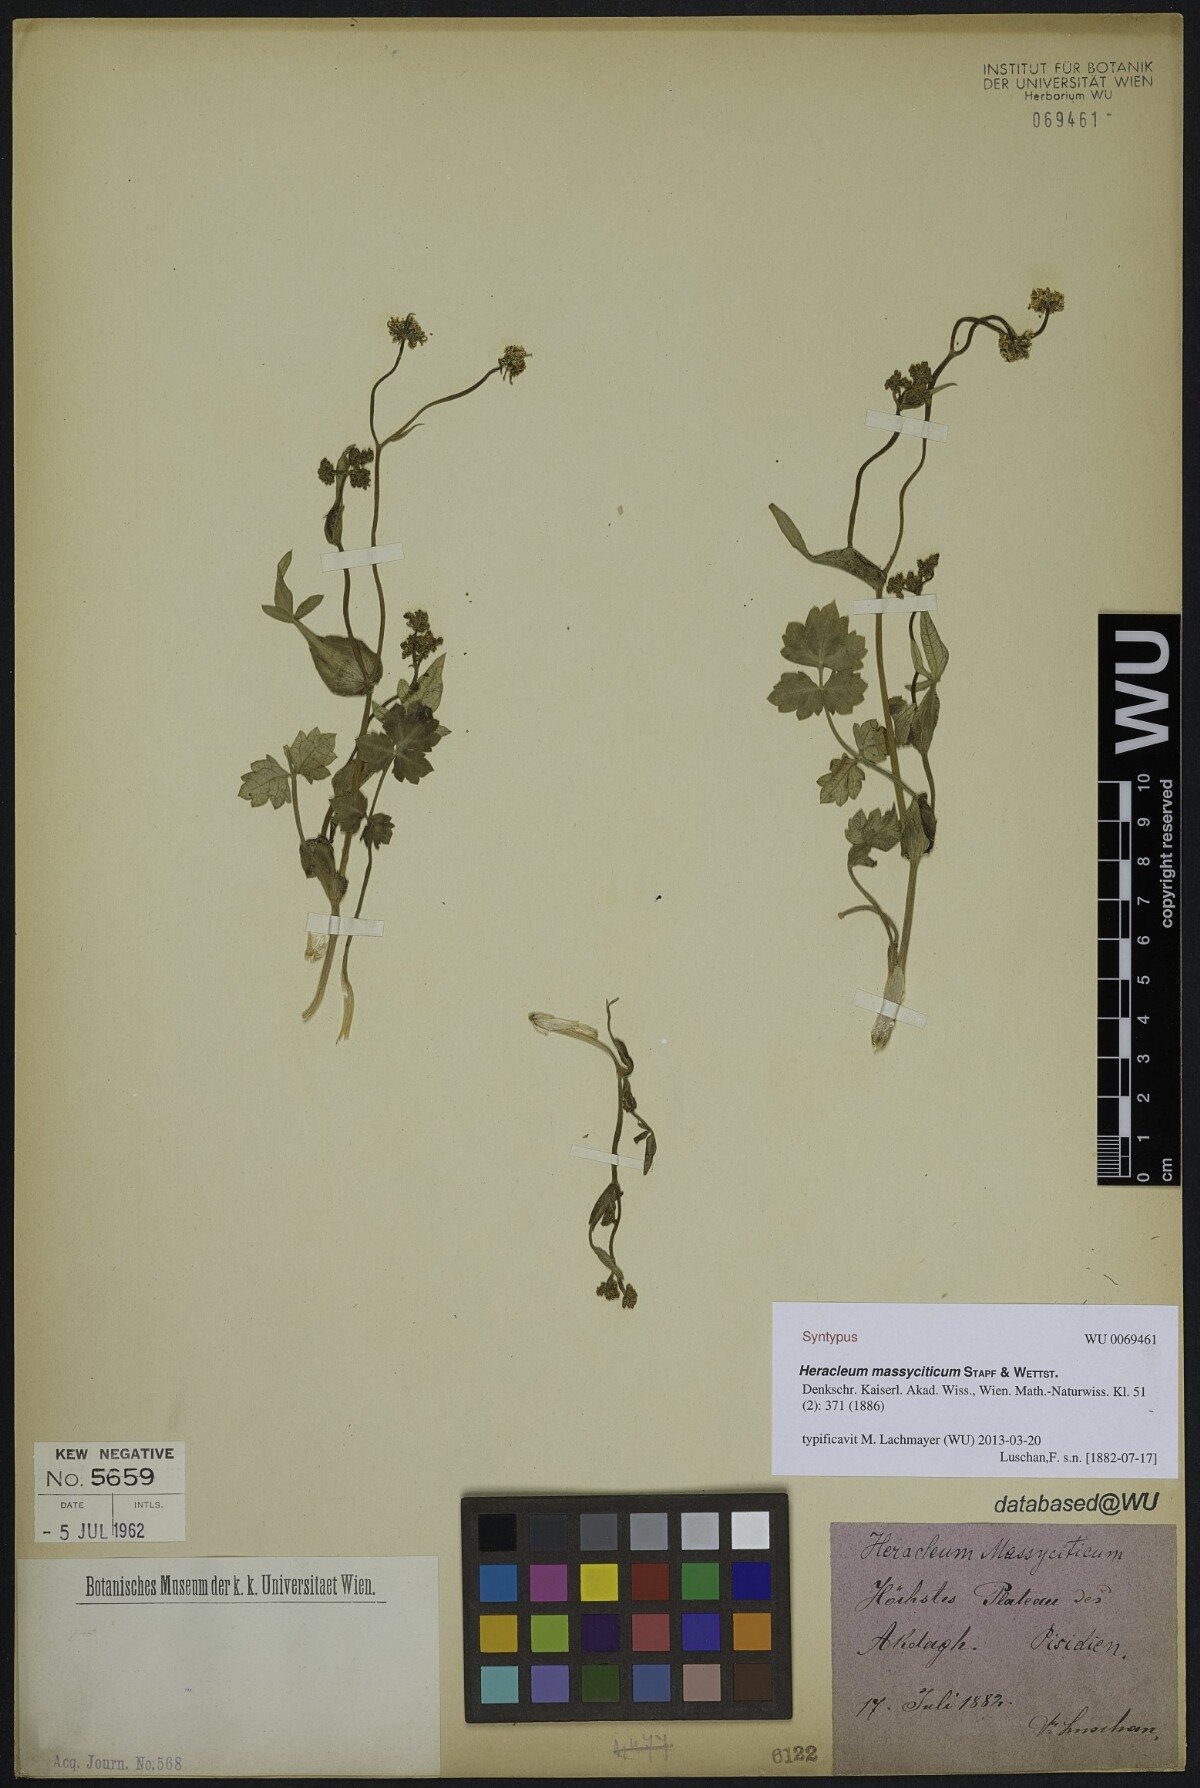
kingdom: Plantae
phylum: Tracheophyta
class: Magnoliopsida
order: Apiales
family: Apiaceae
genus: Heracleum
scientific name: Heracleum humile
